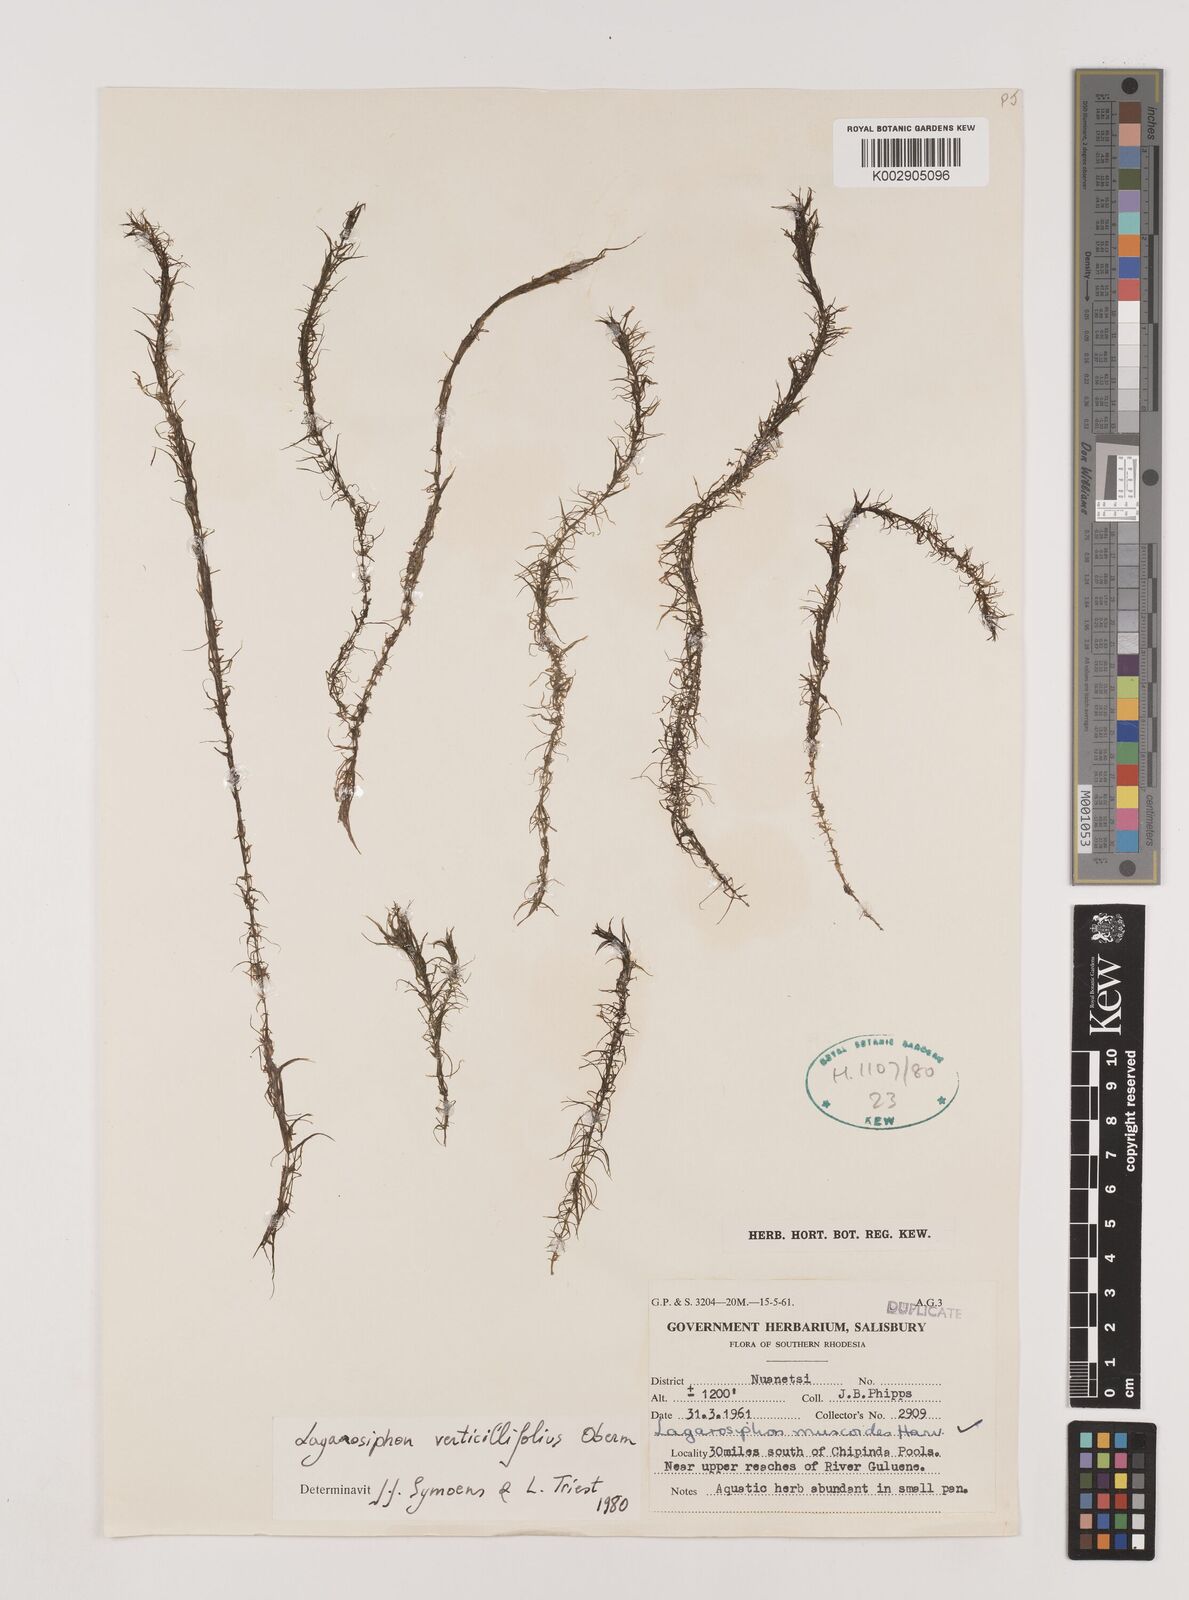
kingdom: Plantae
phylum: Tracheophyta
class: Liliopsida
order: Alismatales
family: Hydrocharitaceae
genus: Lagarosiphon
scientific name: Lagarosiphon verticillifolius
